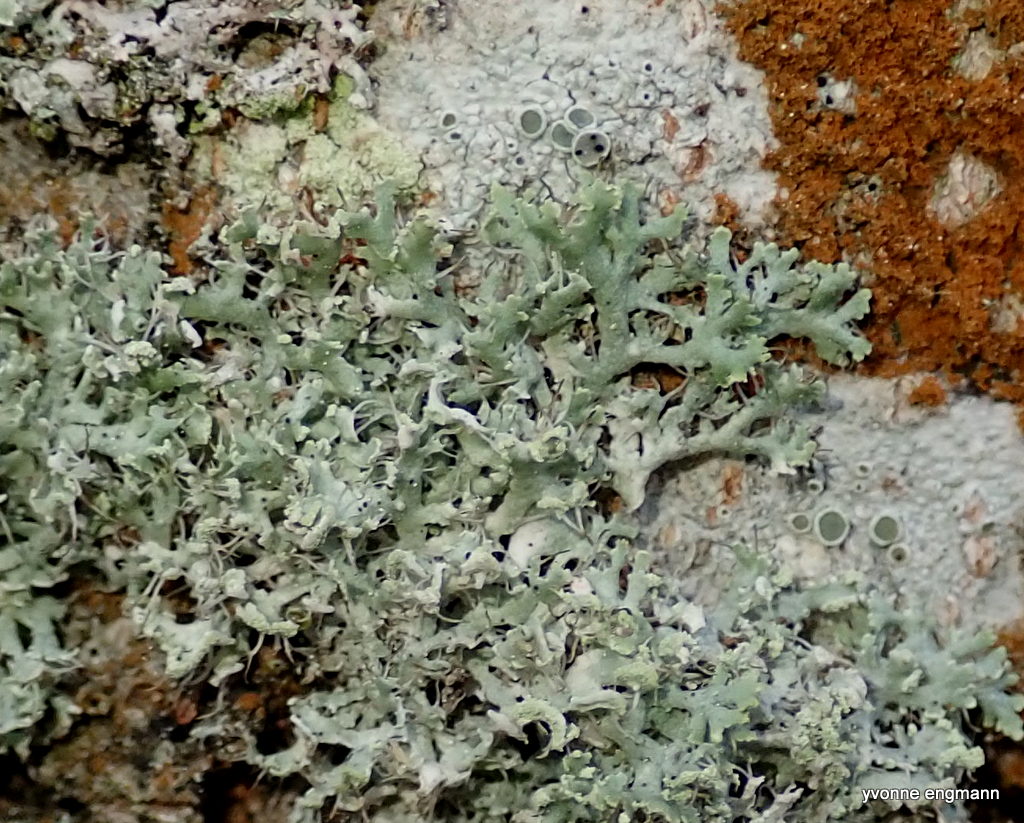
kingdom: Fungi
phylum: Ascomycota
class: Lecanoromycetes
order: Caliciales
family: Physciaceae
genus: Physcia
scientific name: Physcia tenella
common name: spæd rosetlav
